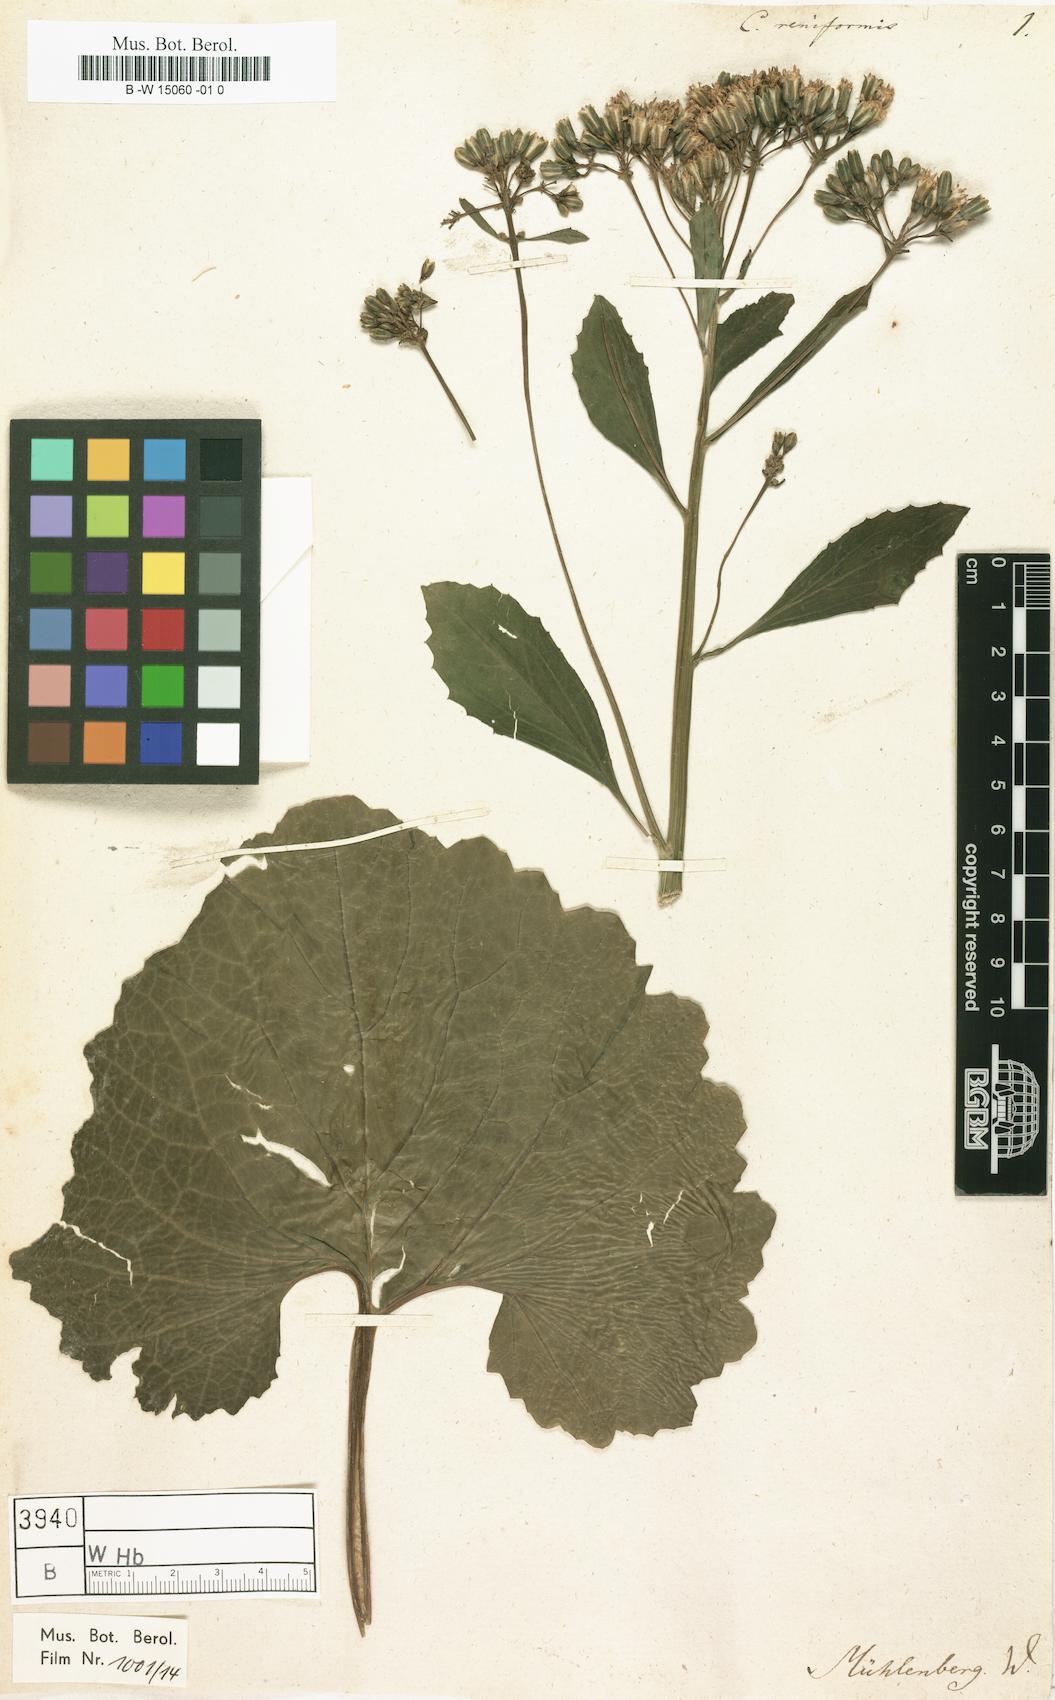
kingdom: Plantae
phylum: Tracheophyta
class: Magnoliopsida
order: Asterales
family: Asteraceae
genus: Adenostyles
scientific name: Adenostyles Cacalia reniformis
